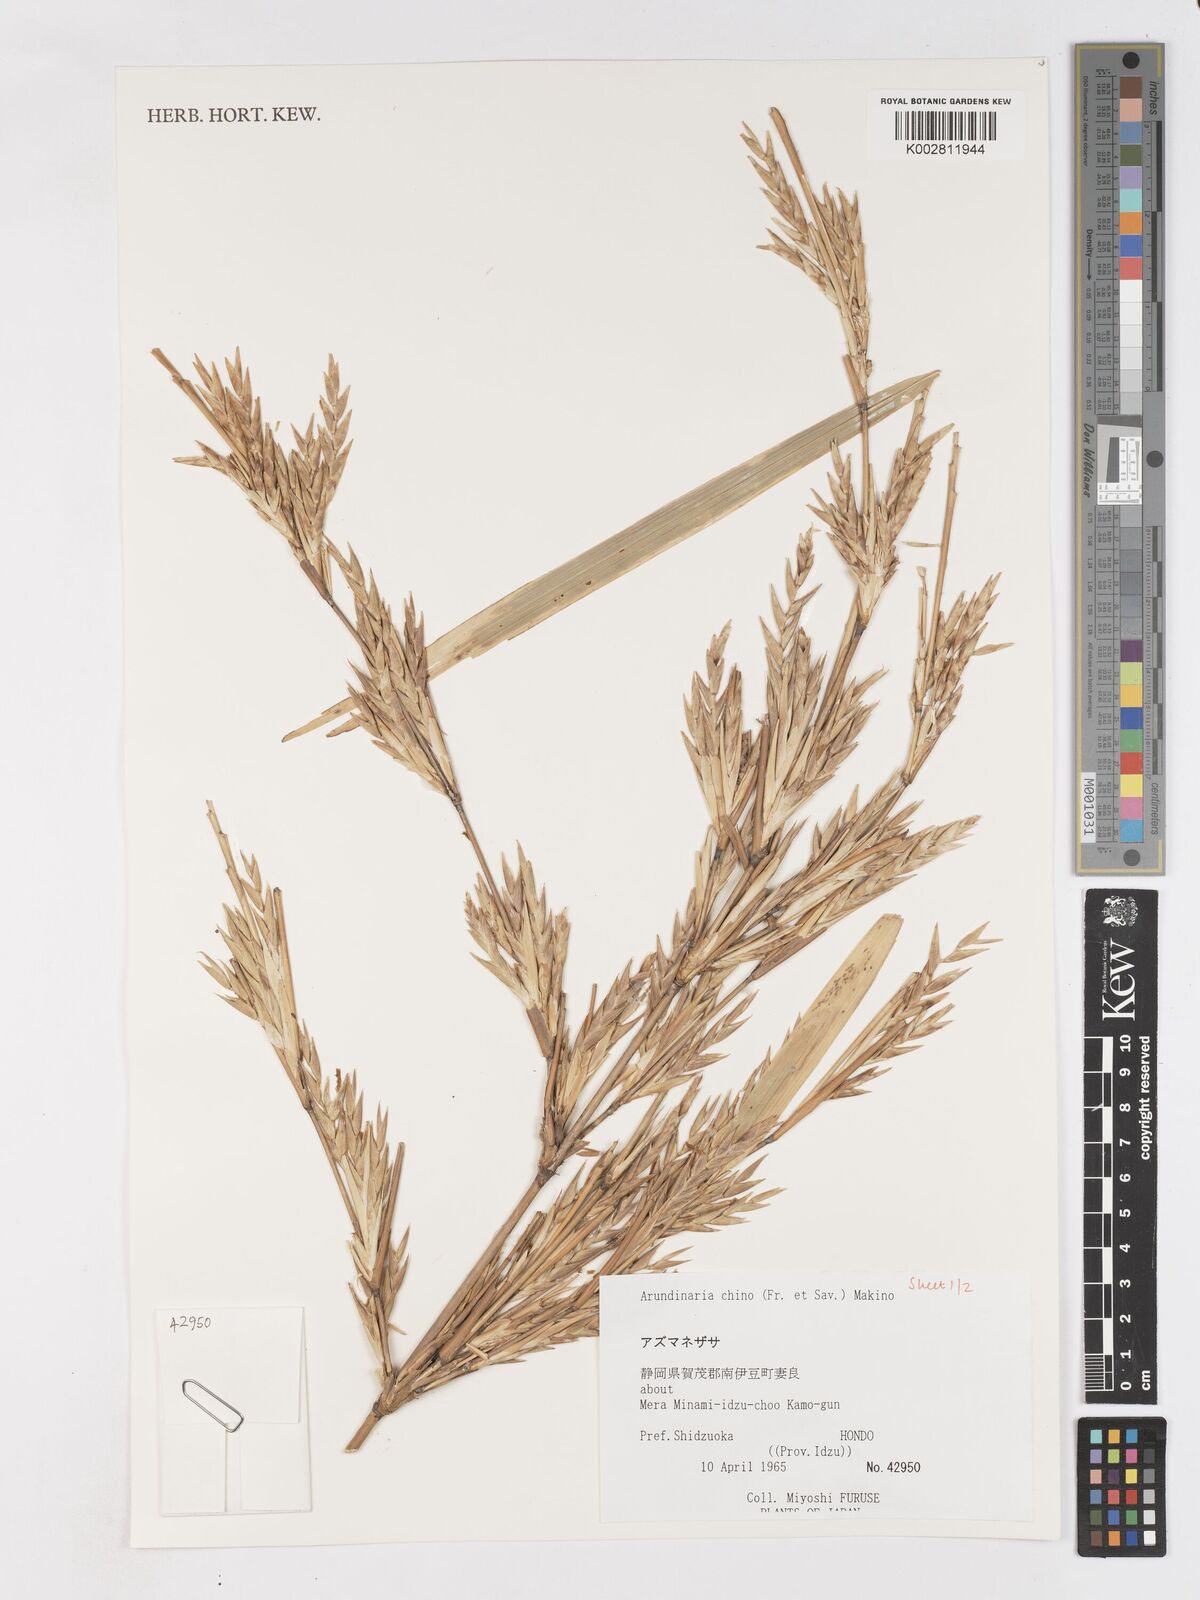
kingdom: Plantae
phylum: Tracheophyta
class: Liliopsida
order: Poales
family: Poaceae
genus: Pleioblastus
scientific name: Pleioblastus argenteostriatus
